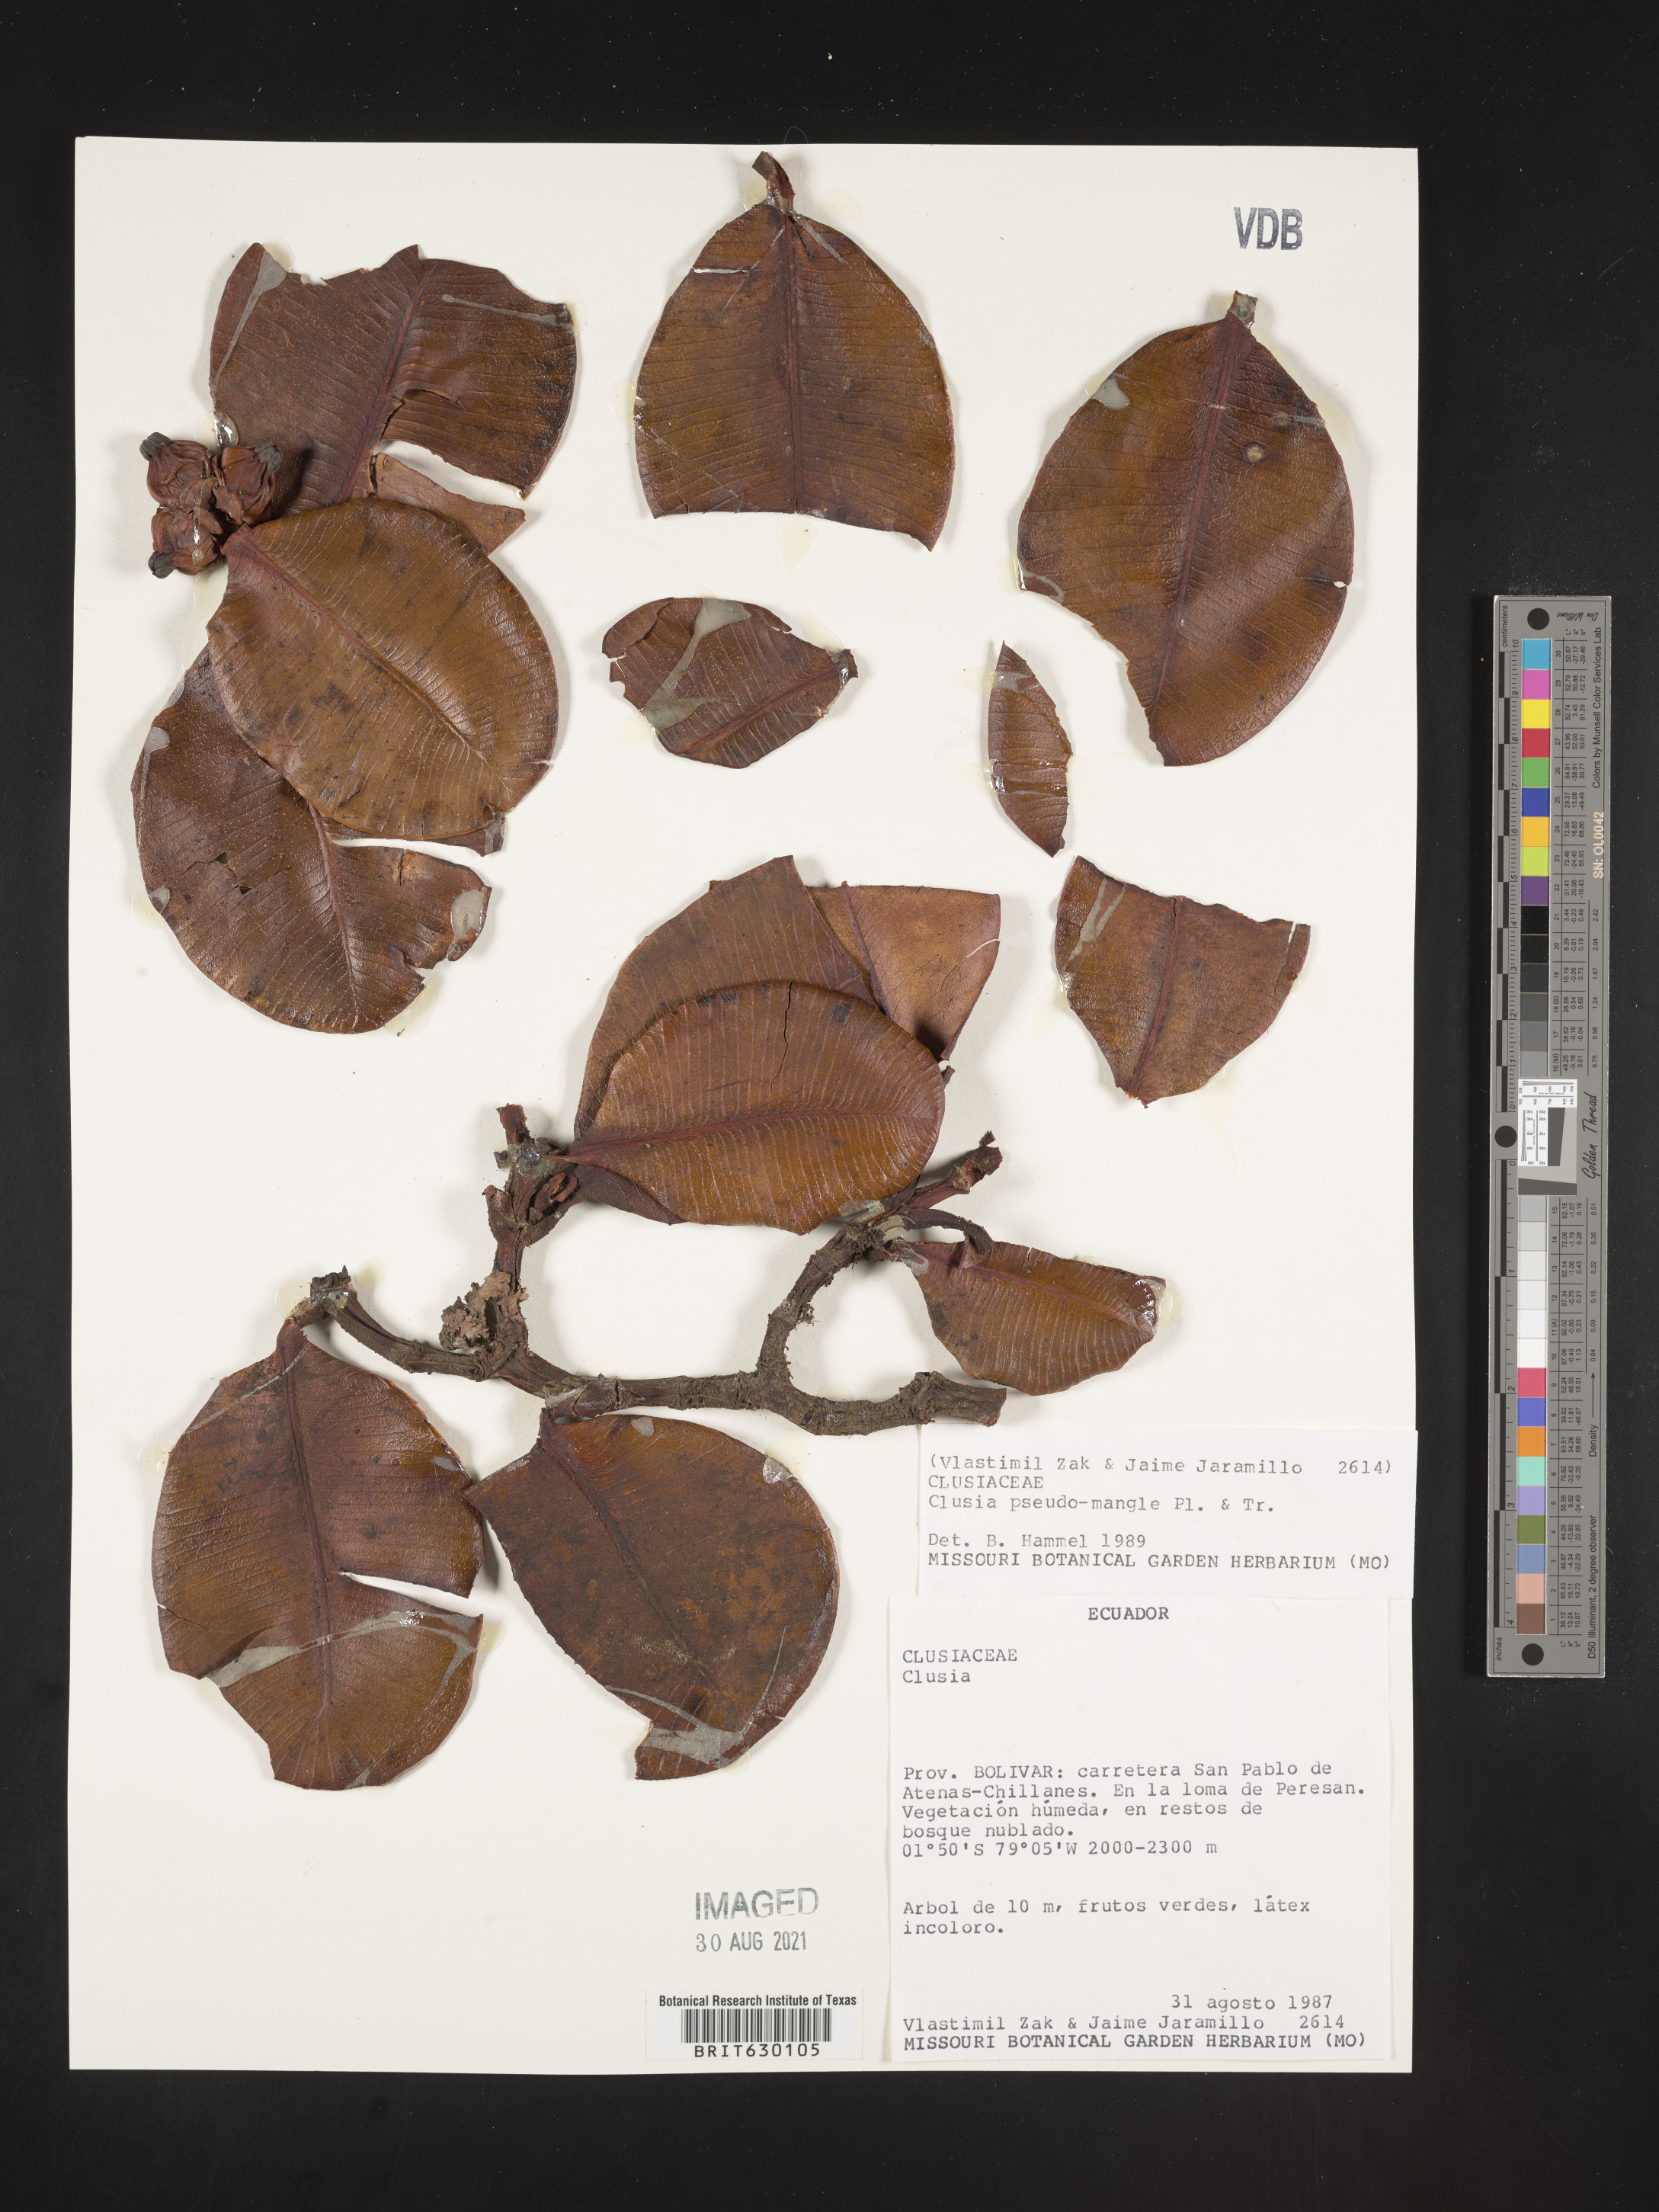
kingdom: Plantae
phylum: Tracheophyta
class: Magnoliopsida
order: Malpighiales
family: Clusiaceae
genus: Clusia
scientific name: Clusia pseudomangle
